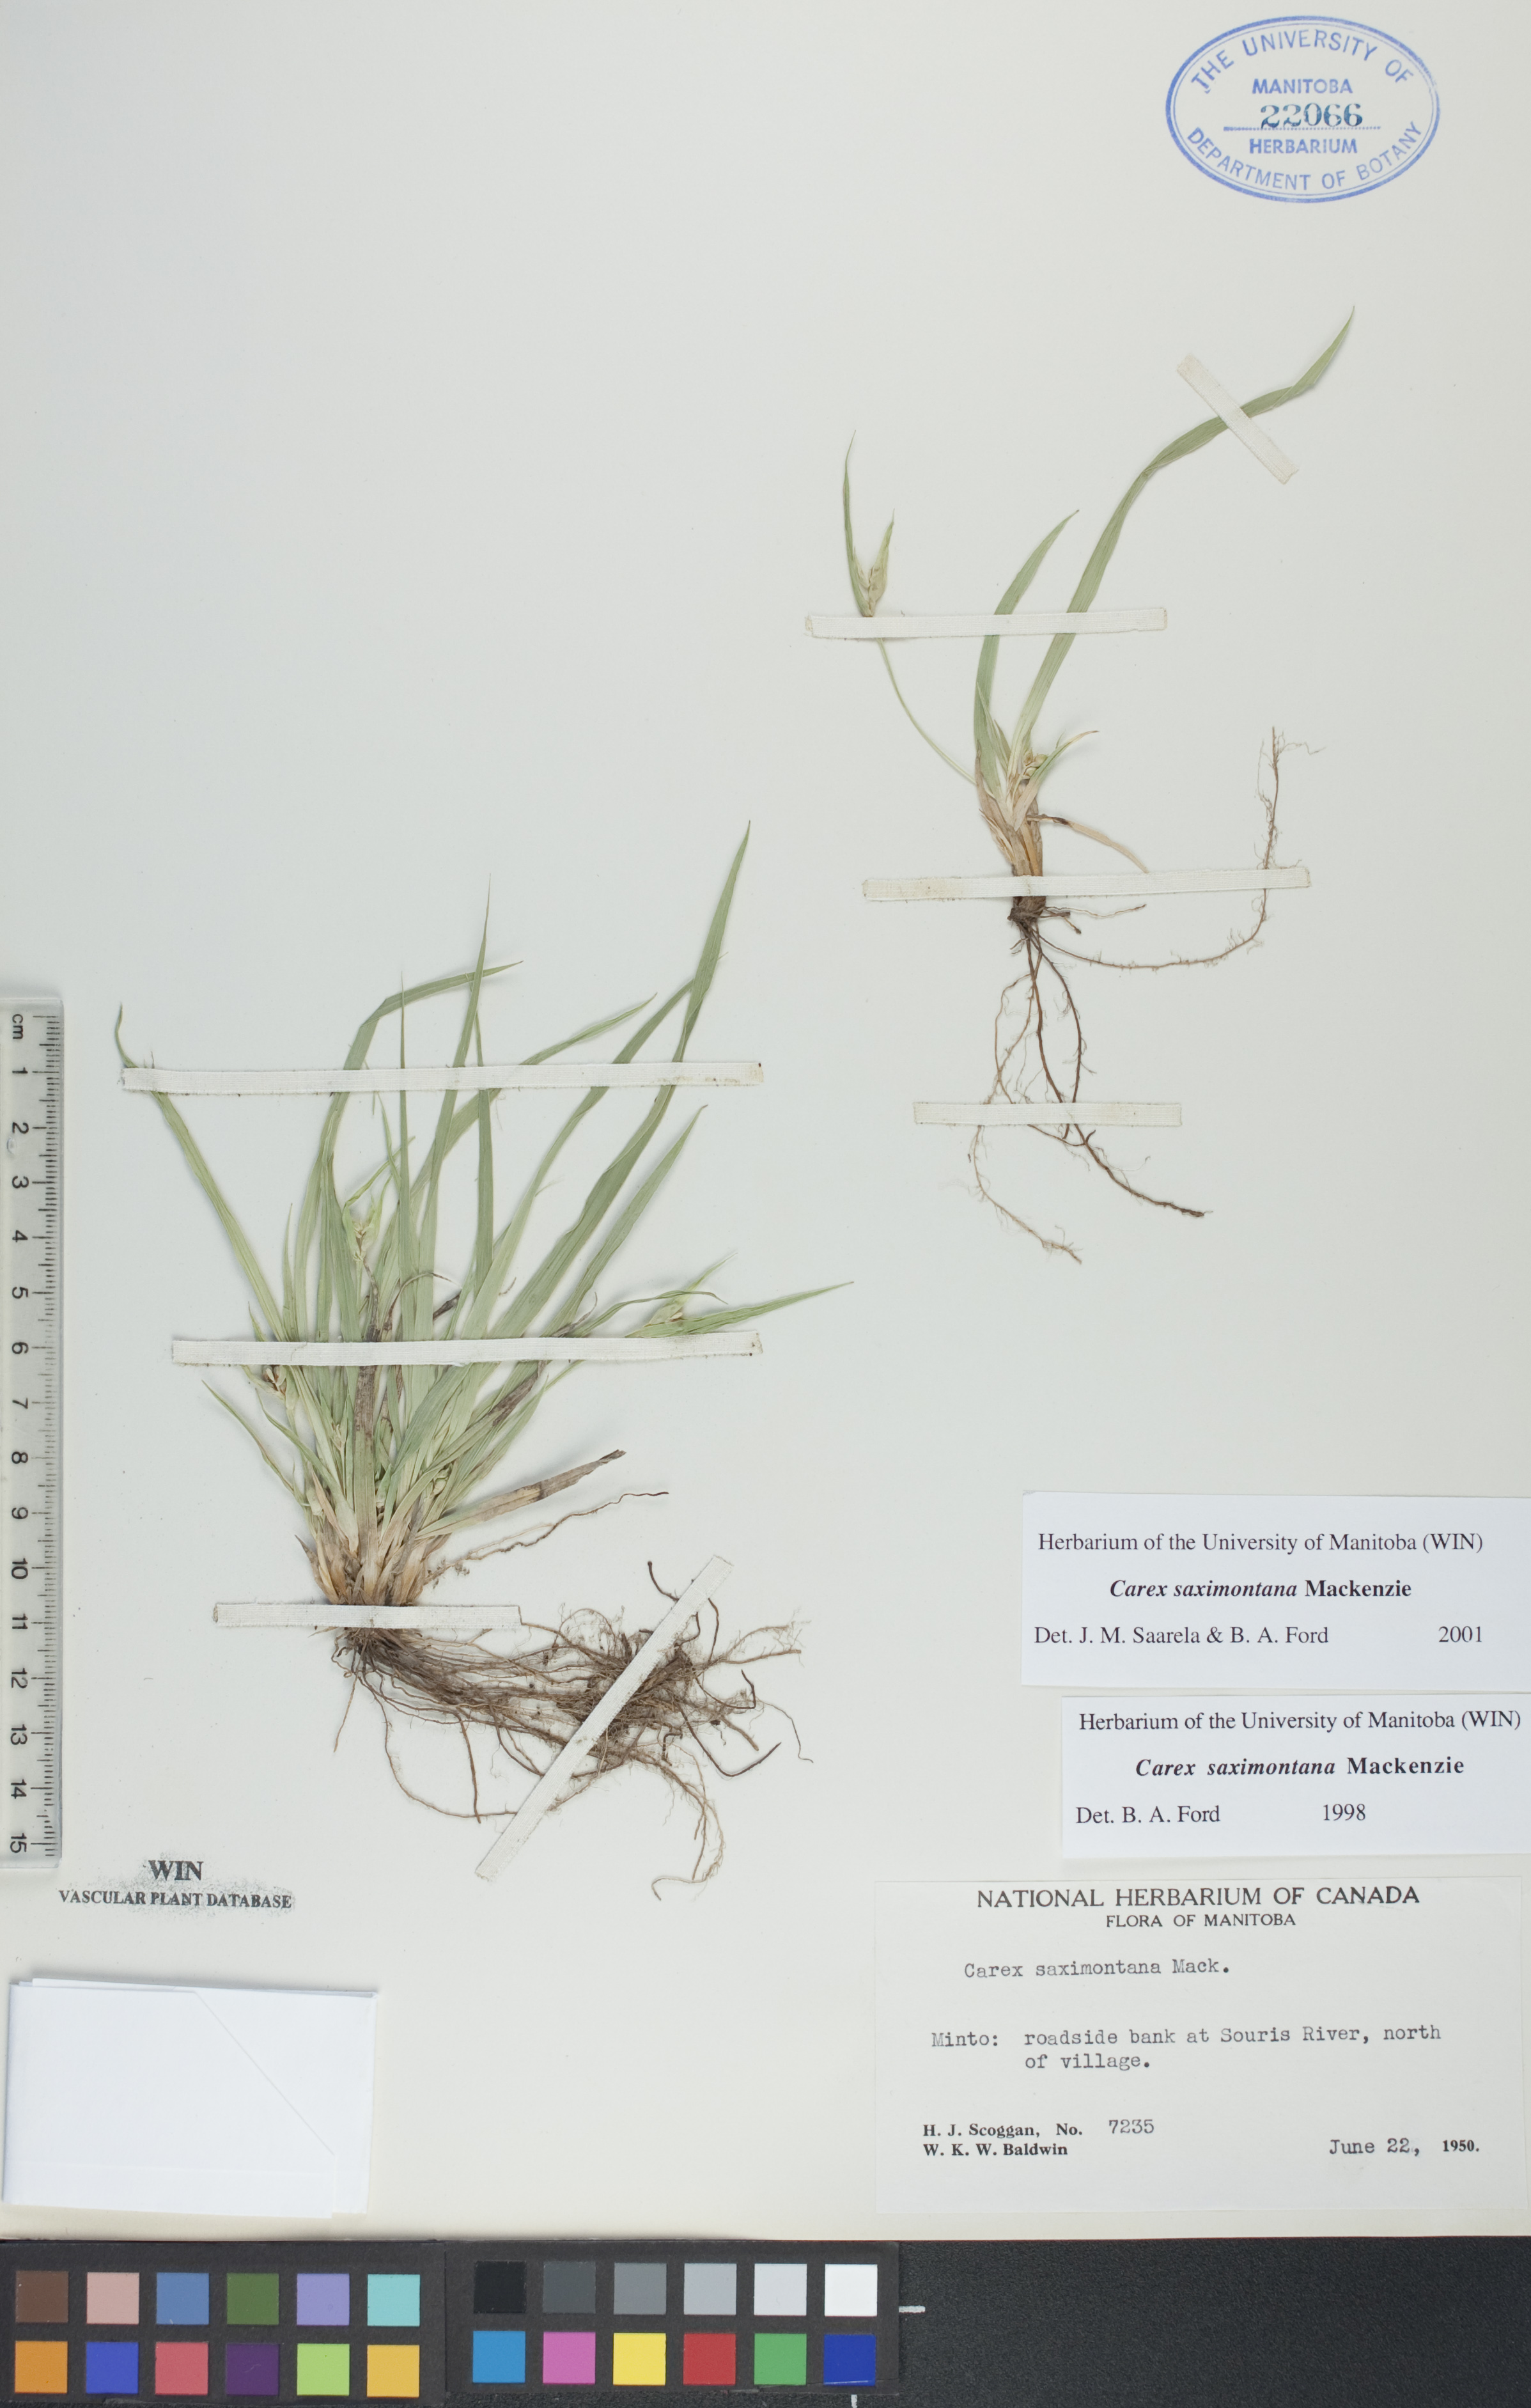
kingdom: Plantae
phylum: Tracheophyta
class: Liliopsida
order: Poales
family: Cyperaceae
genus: Carex
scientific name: Carex saximontana
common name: Rocky mountain sedge
